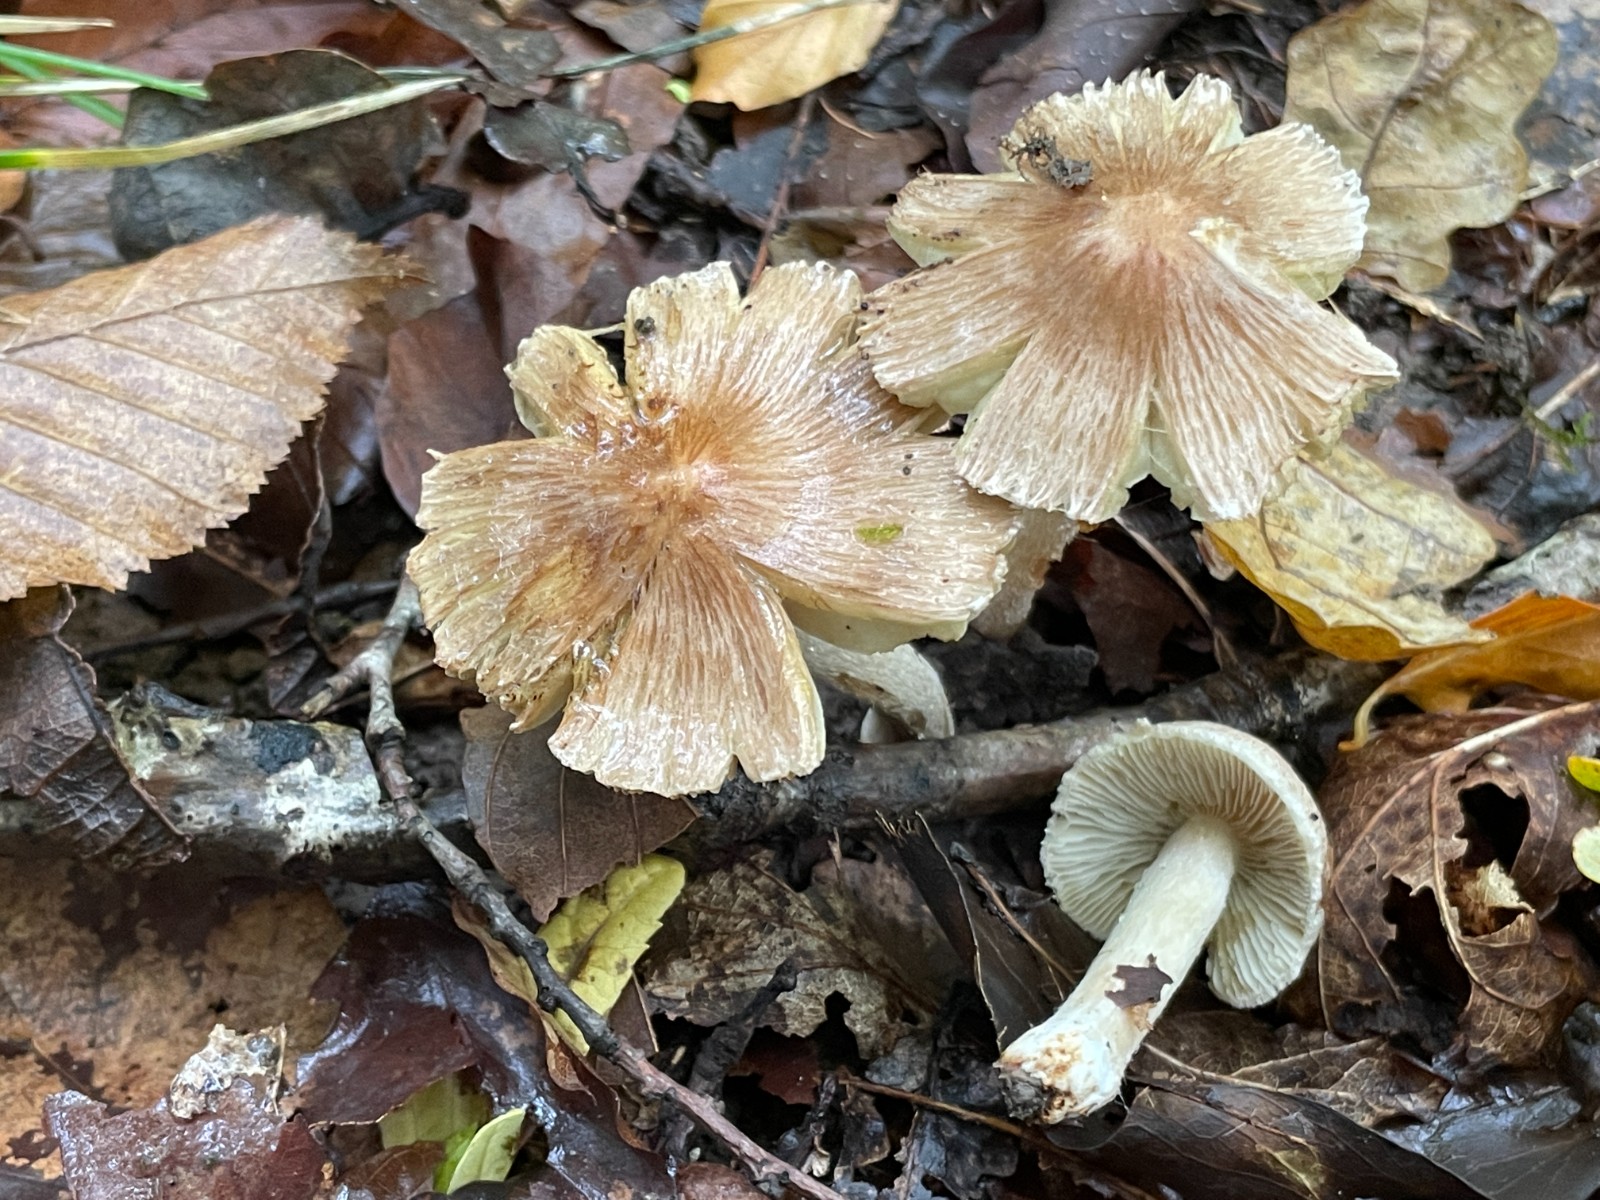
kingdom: Fungi
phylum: Basidiomycota
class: Agaricomycetes
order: Agaricales
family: Inocybaceae
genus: Pseudosperma
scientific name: Pseudosperma
